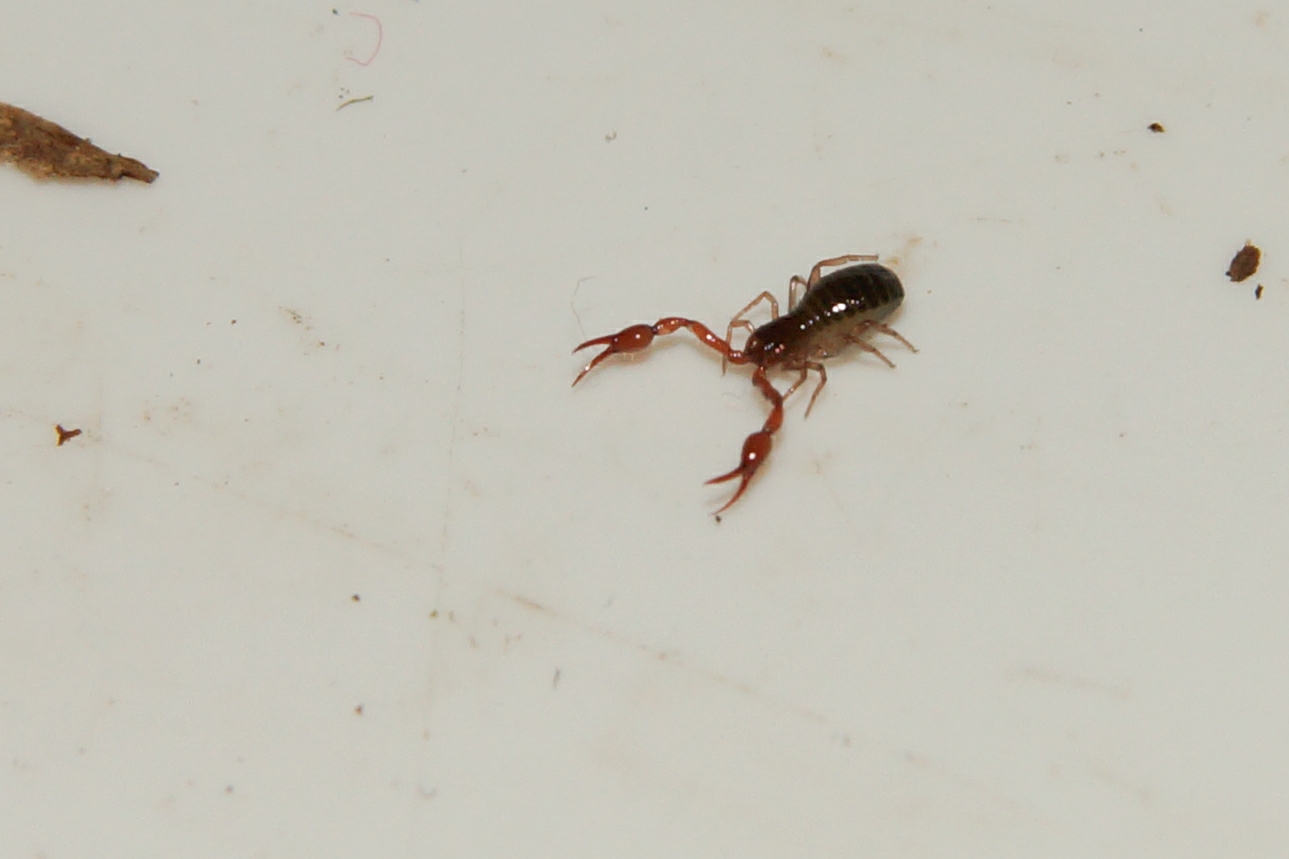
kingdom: Animalia
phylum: Arthropoda
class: Arachnida
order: Pseudoscorpiones
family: Neobisiidae
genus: Neobisium
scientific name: Neobisium carcinoides
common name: Almindelig mosskorpion
